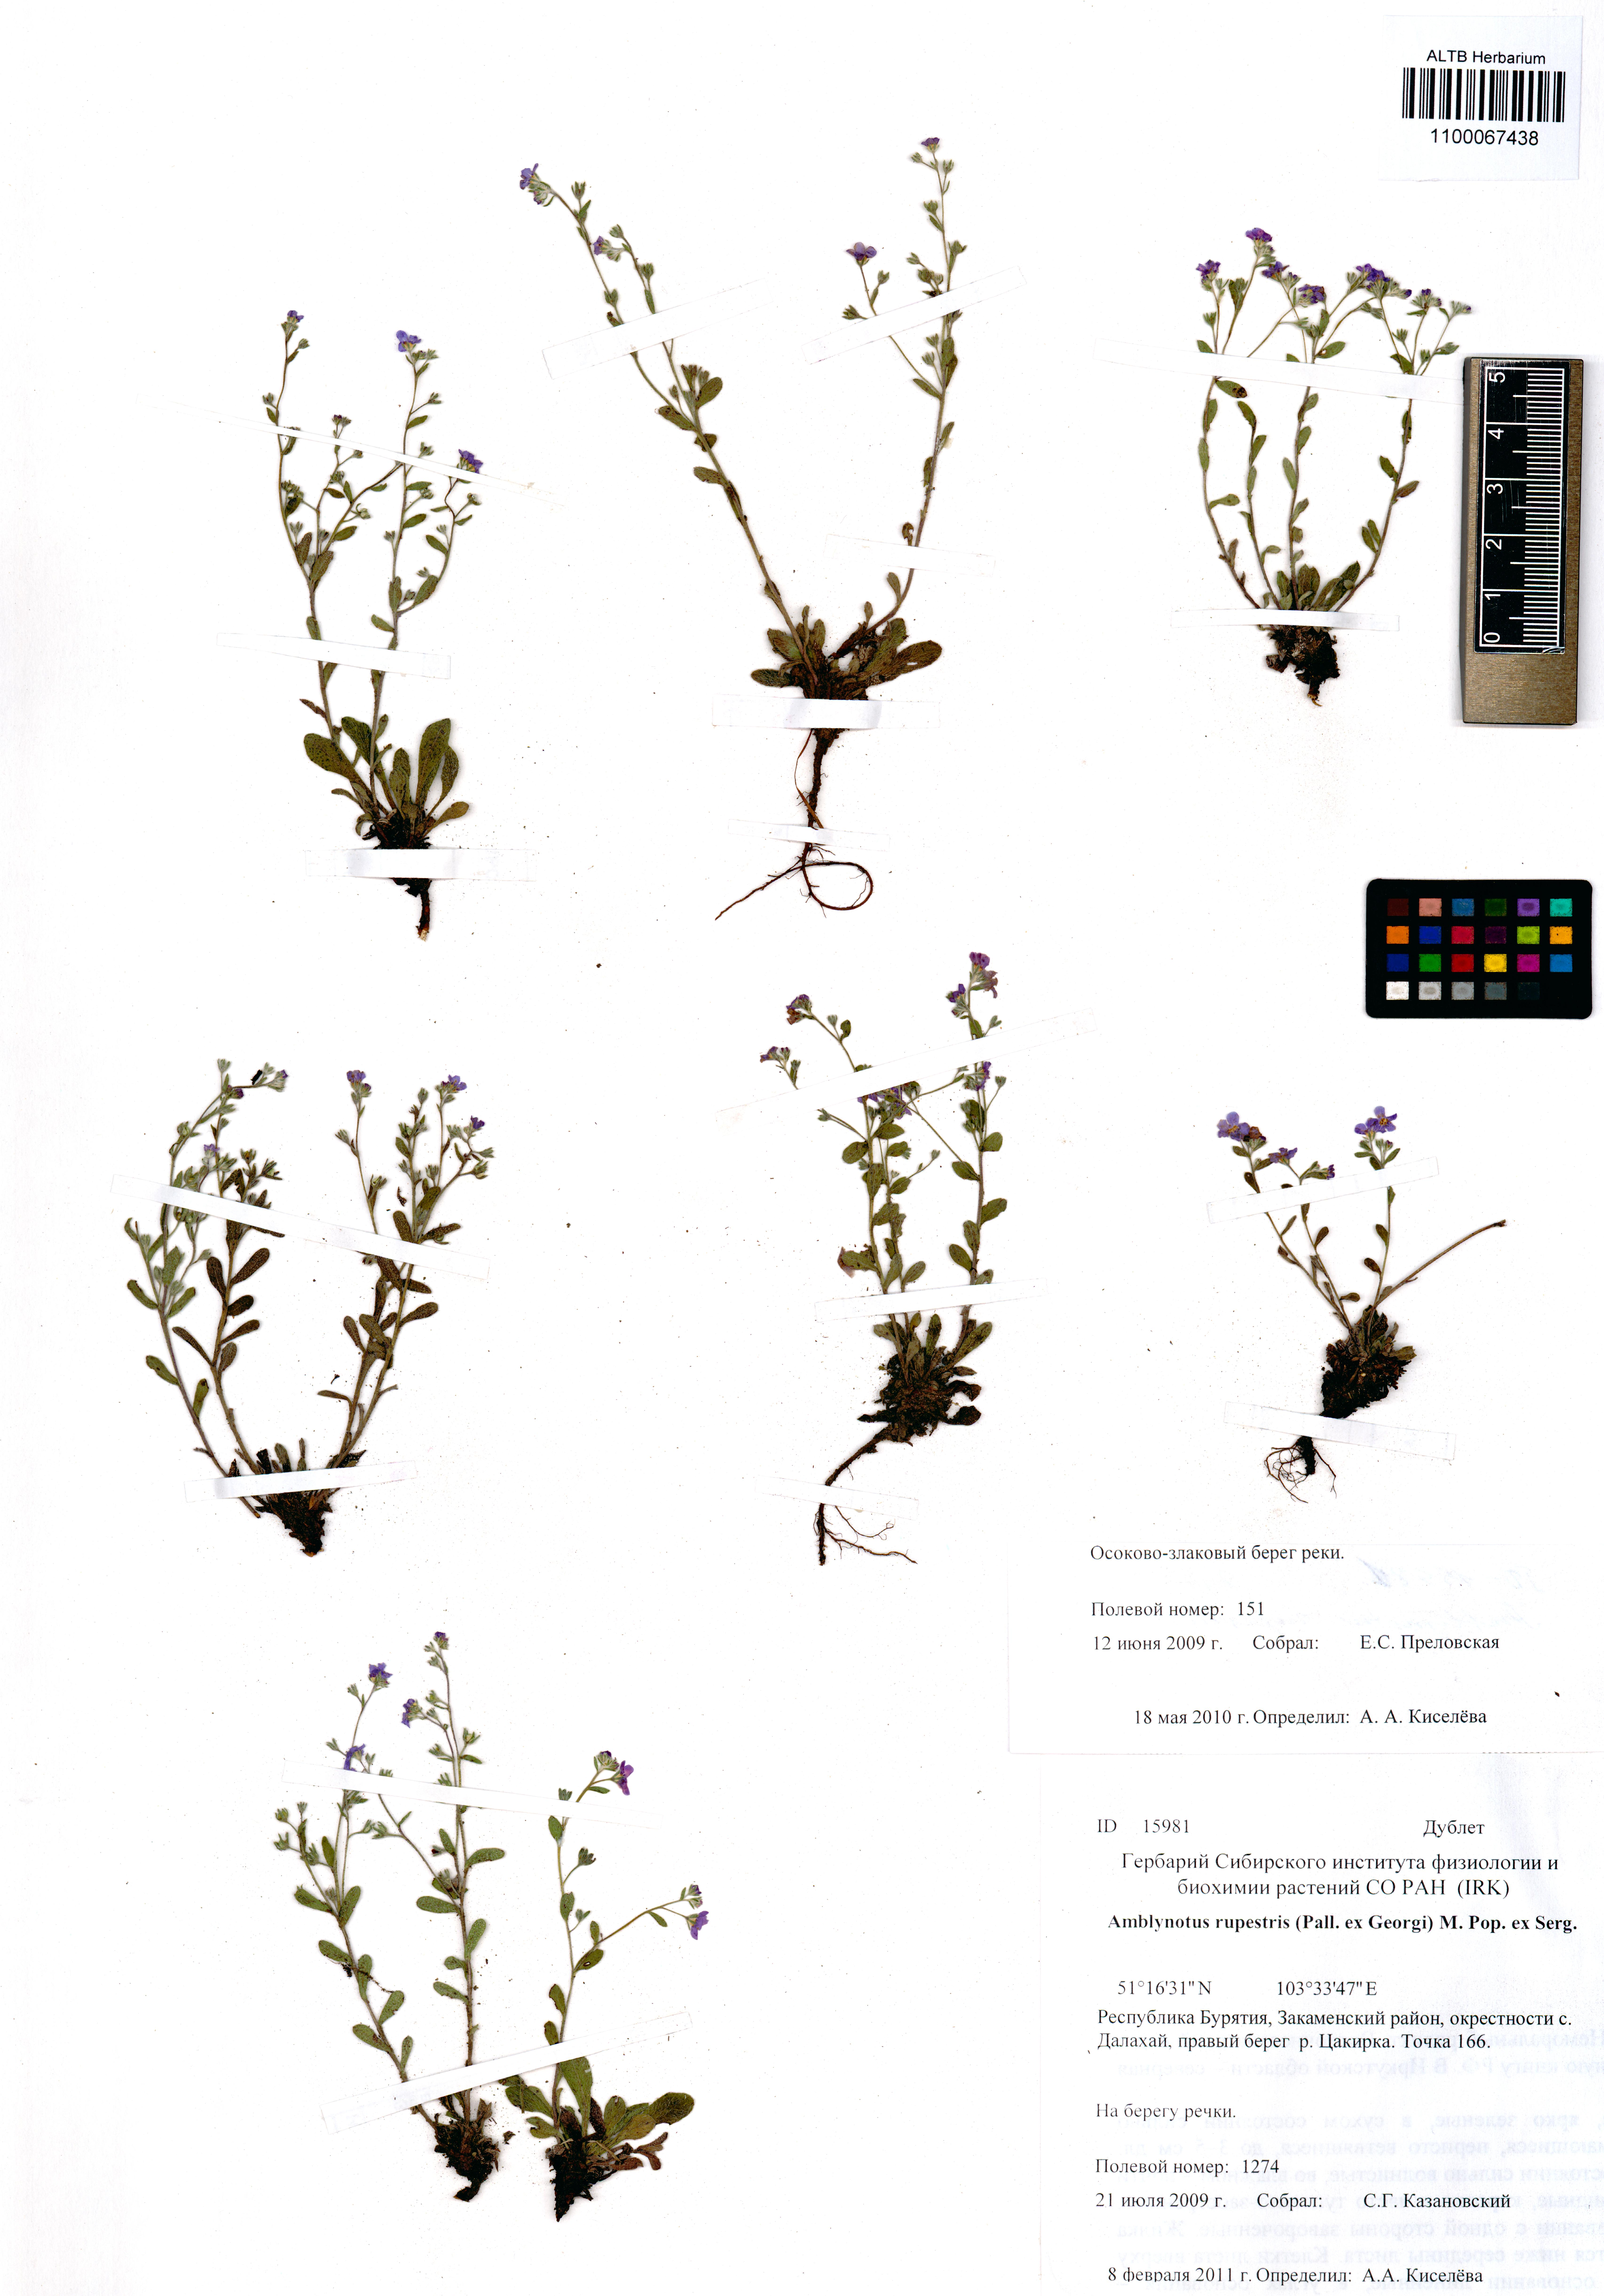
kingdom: Plantae
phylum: Tracheophyta
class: Magnoliopsida
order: Boraginales
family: Boraginaceae
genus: Eritrichium
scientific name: Eritrichium rupestre
